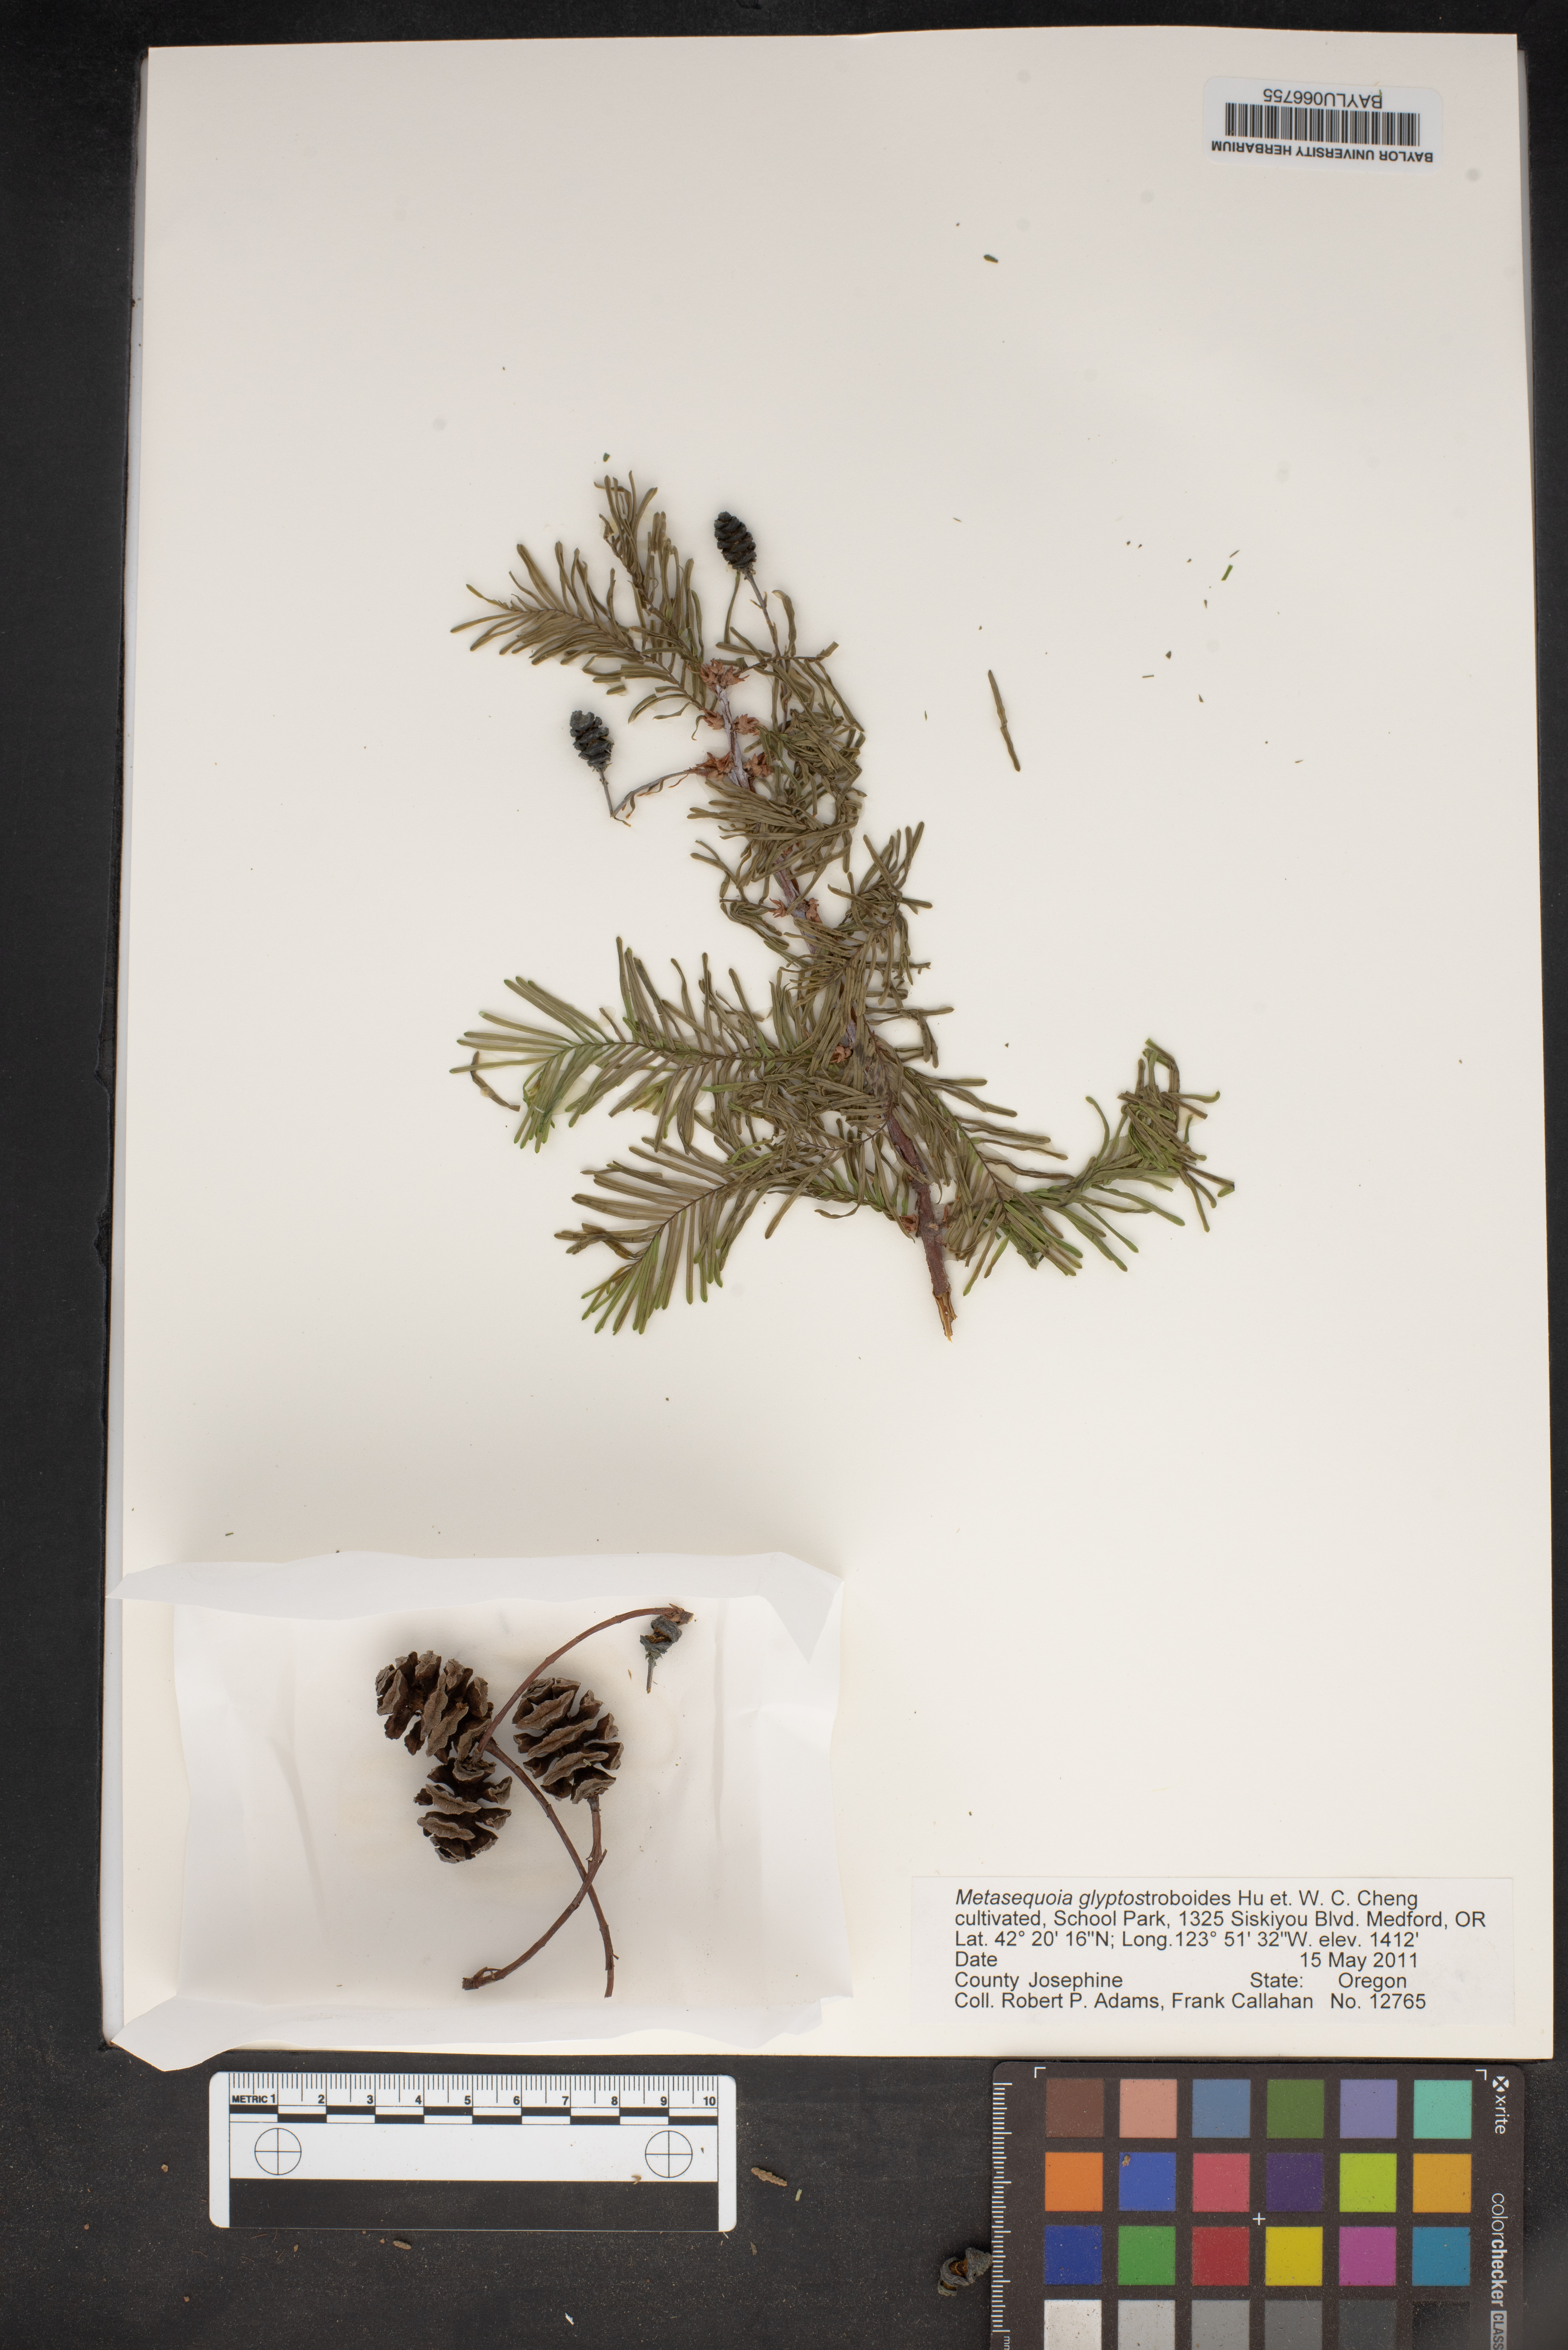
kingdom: Plantae
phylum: Tracheophyta
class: Pinopsida
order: Pinales
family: Cupressaceae
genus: Metasequoia
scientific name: Metasequoia glyptostroboides
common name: Dawn redwood
